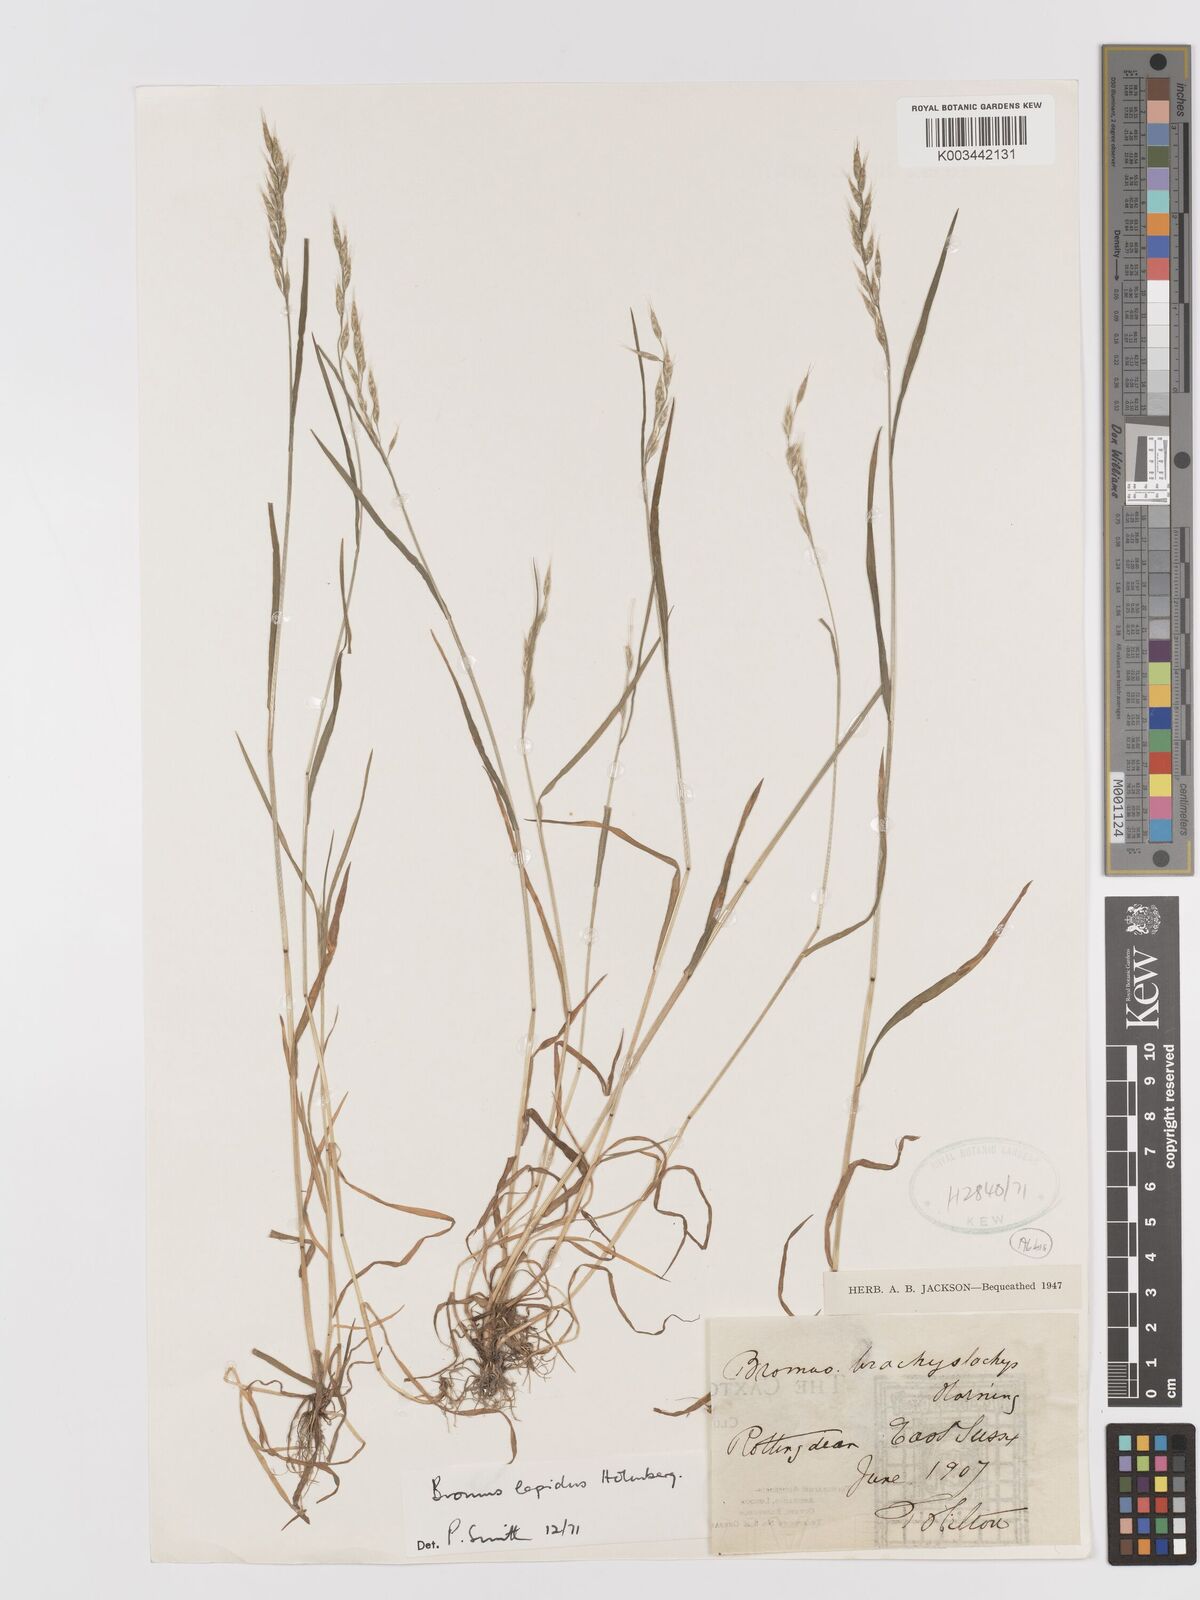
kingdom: Plantae
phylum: Tracheophyta
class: Liliopsida
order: Poales
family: Poaceae
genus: Bromus
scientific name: Bromus lepidus
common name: Slender soft-brome
